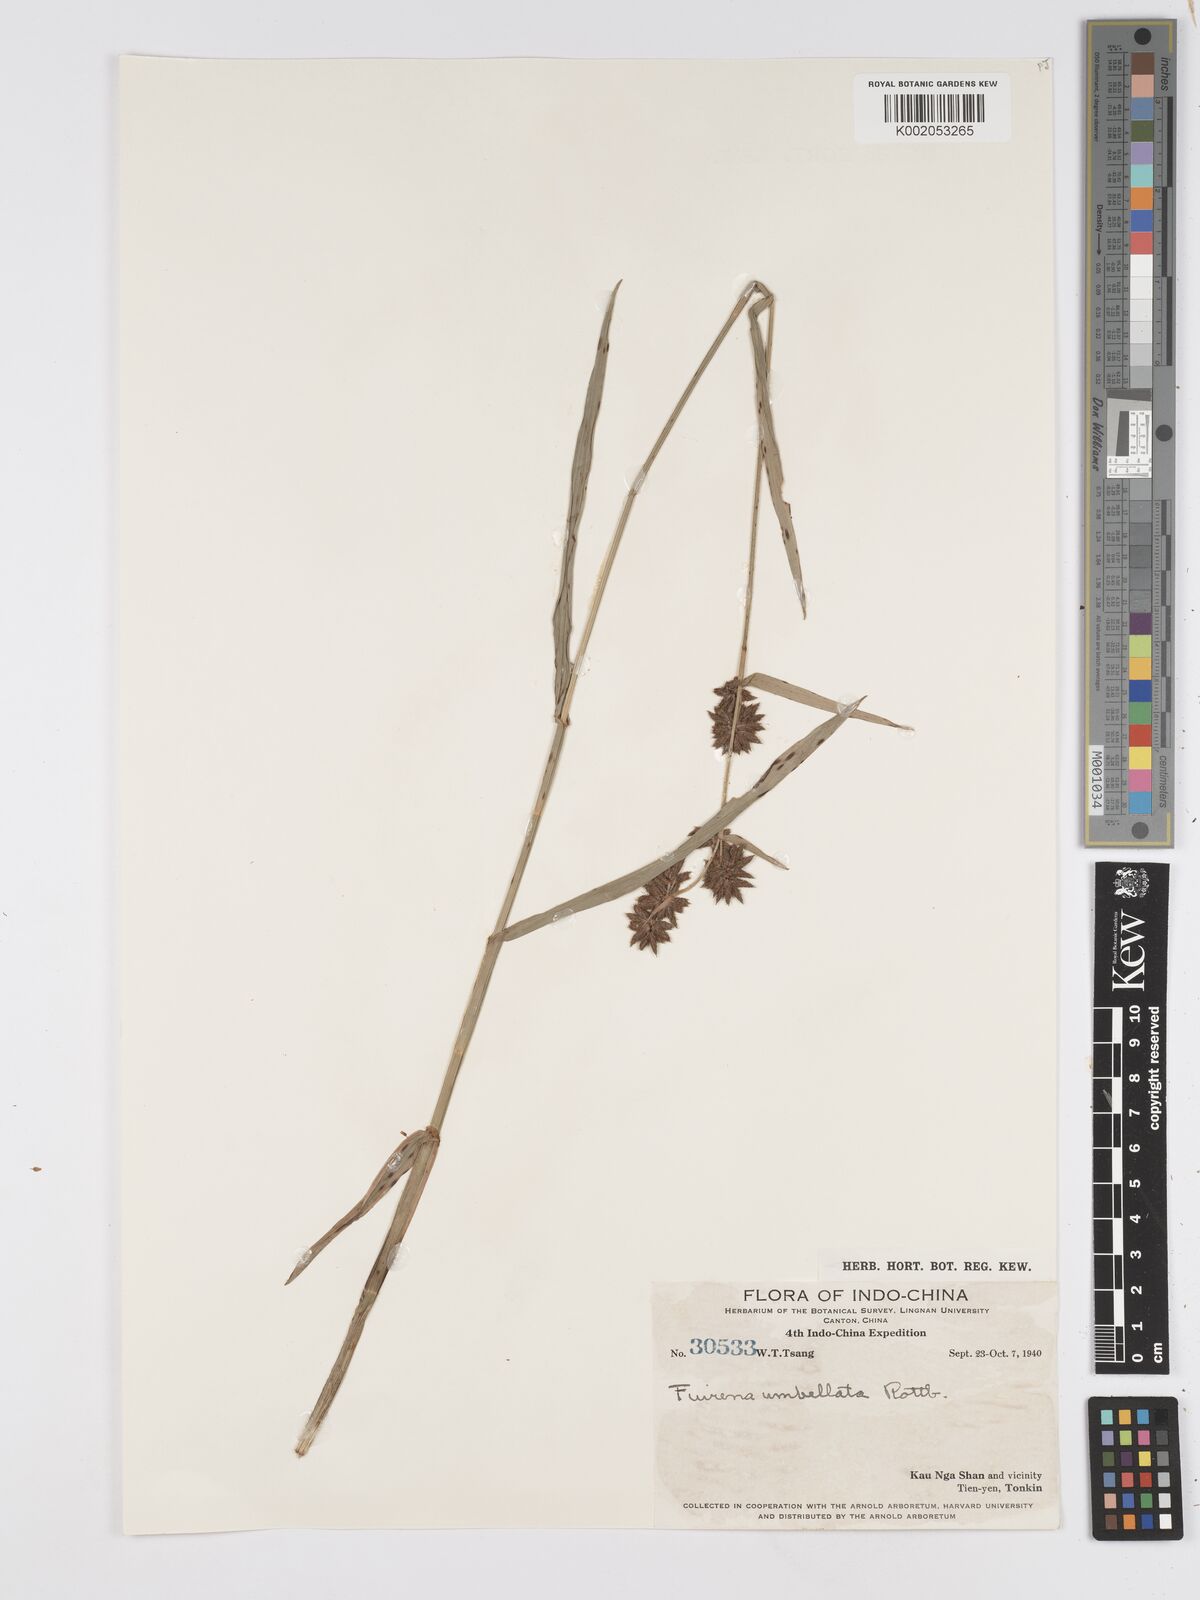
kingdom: Plantae
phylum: Tracheophyta
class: Liliopsida
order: Poales
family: Cyperaceae
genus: Fuirena
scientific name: Fuirena umbellata
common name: Yefen
